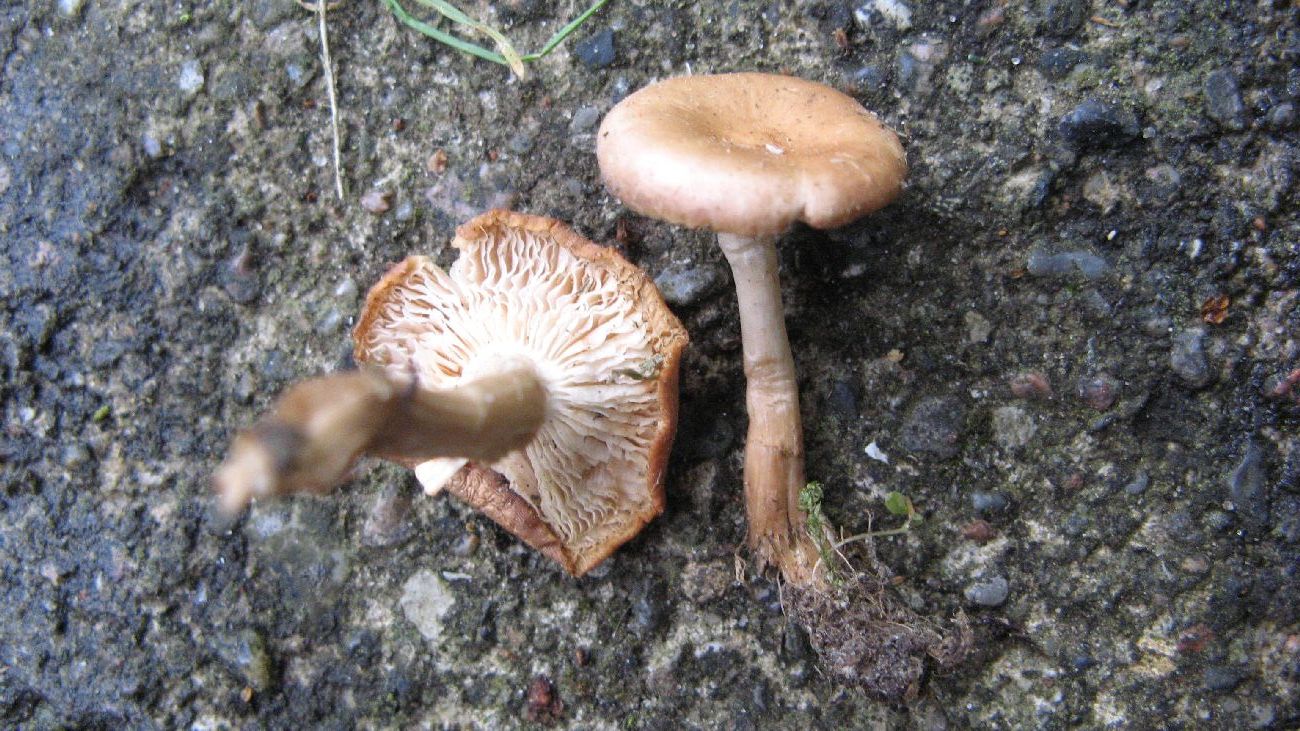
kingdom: Fungi
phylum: Basidiomycota
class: Agaricomycetes
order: Agaricales
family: Omphalotaceae
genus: Gymnopus
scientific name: Gymnopus ocior
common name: mørk fladhat
